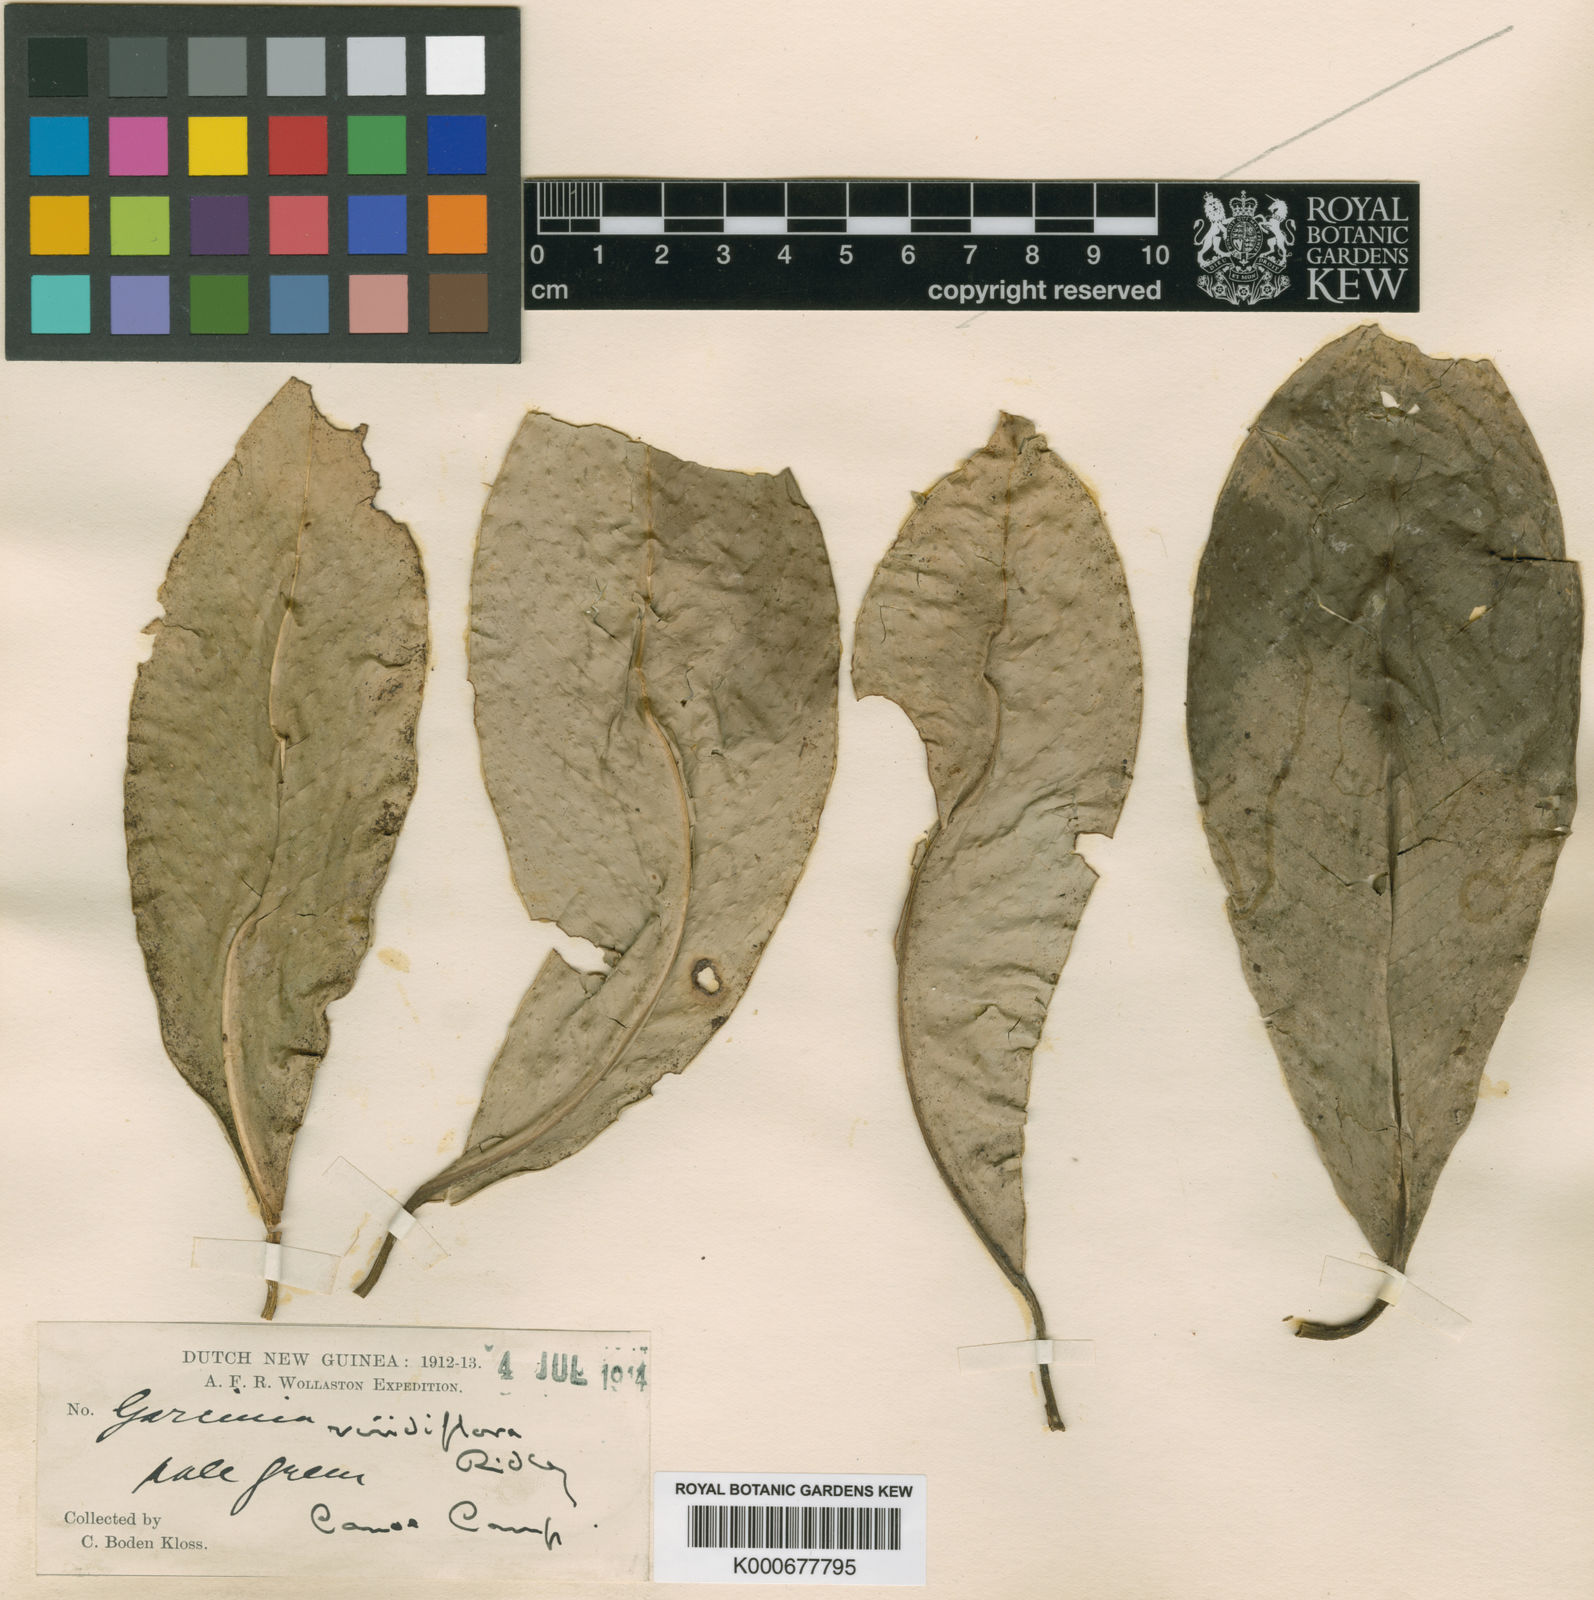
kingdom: Plantae
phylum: Tracheophyta
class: Magnoliopsida
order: Malpighiales
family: Clusiaceae
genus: Garcinia
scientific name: Garcinia viridiflora
